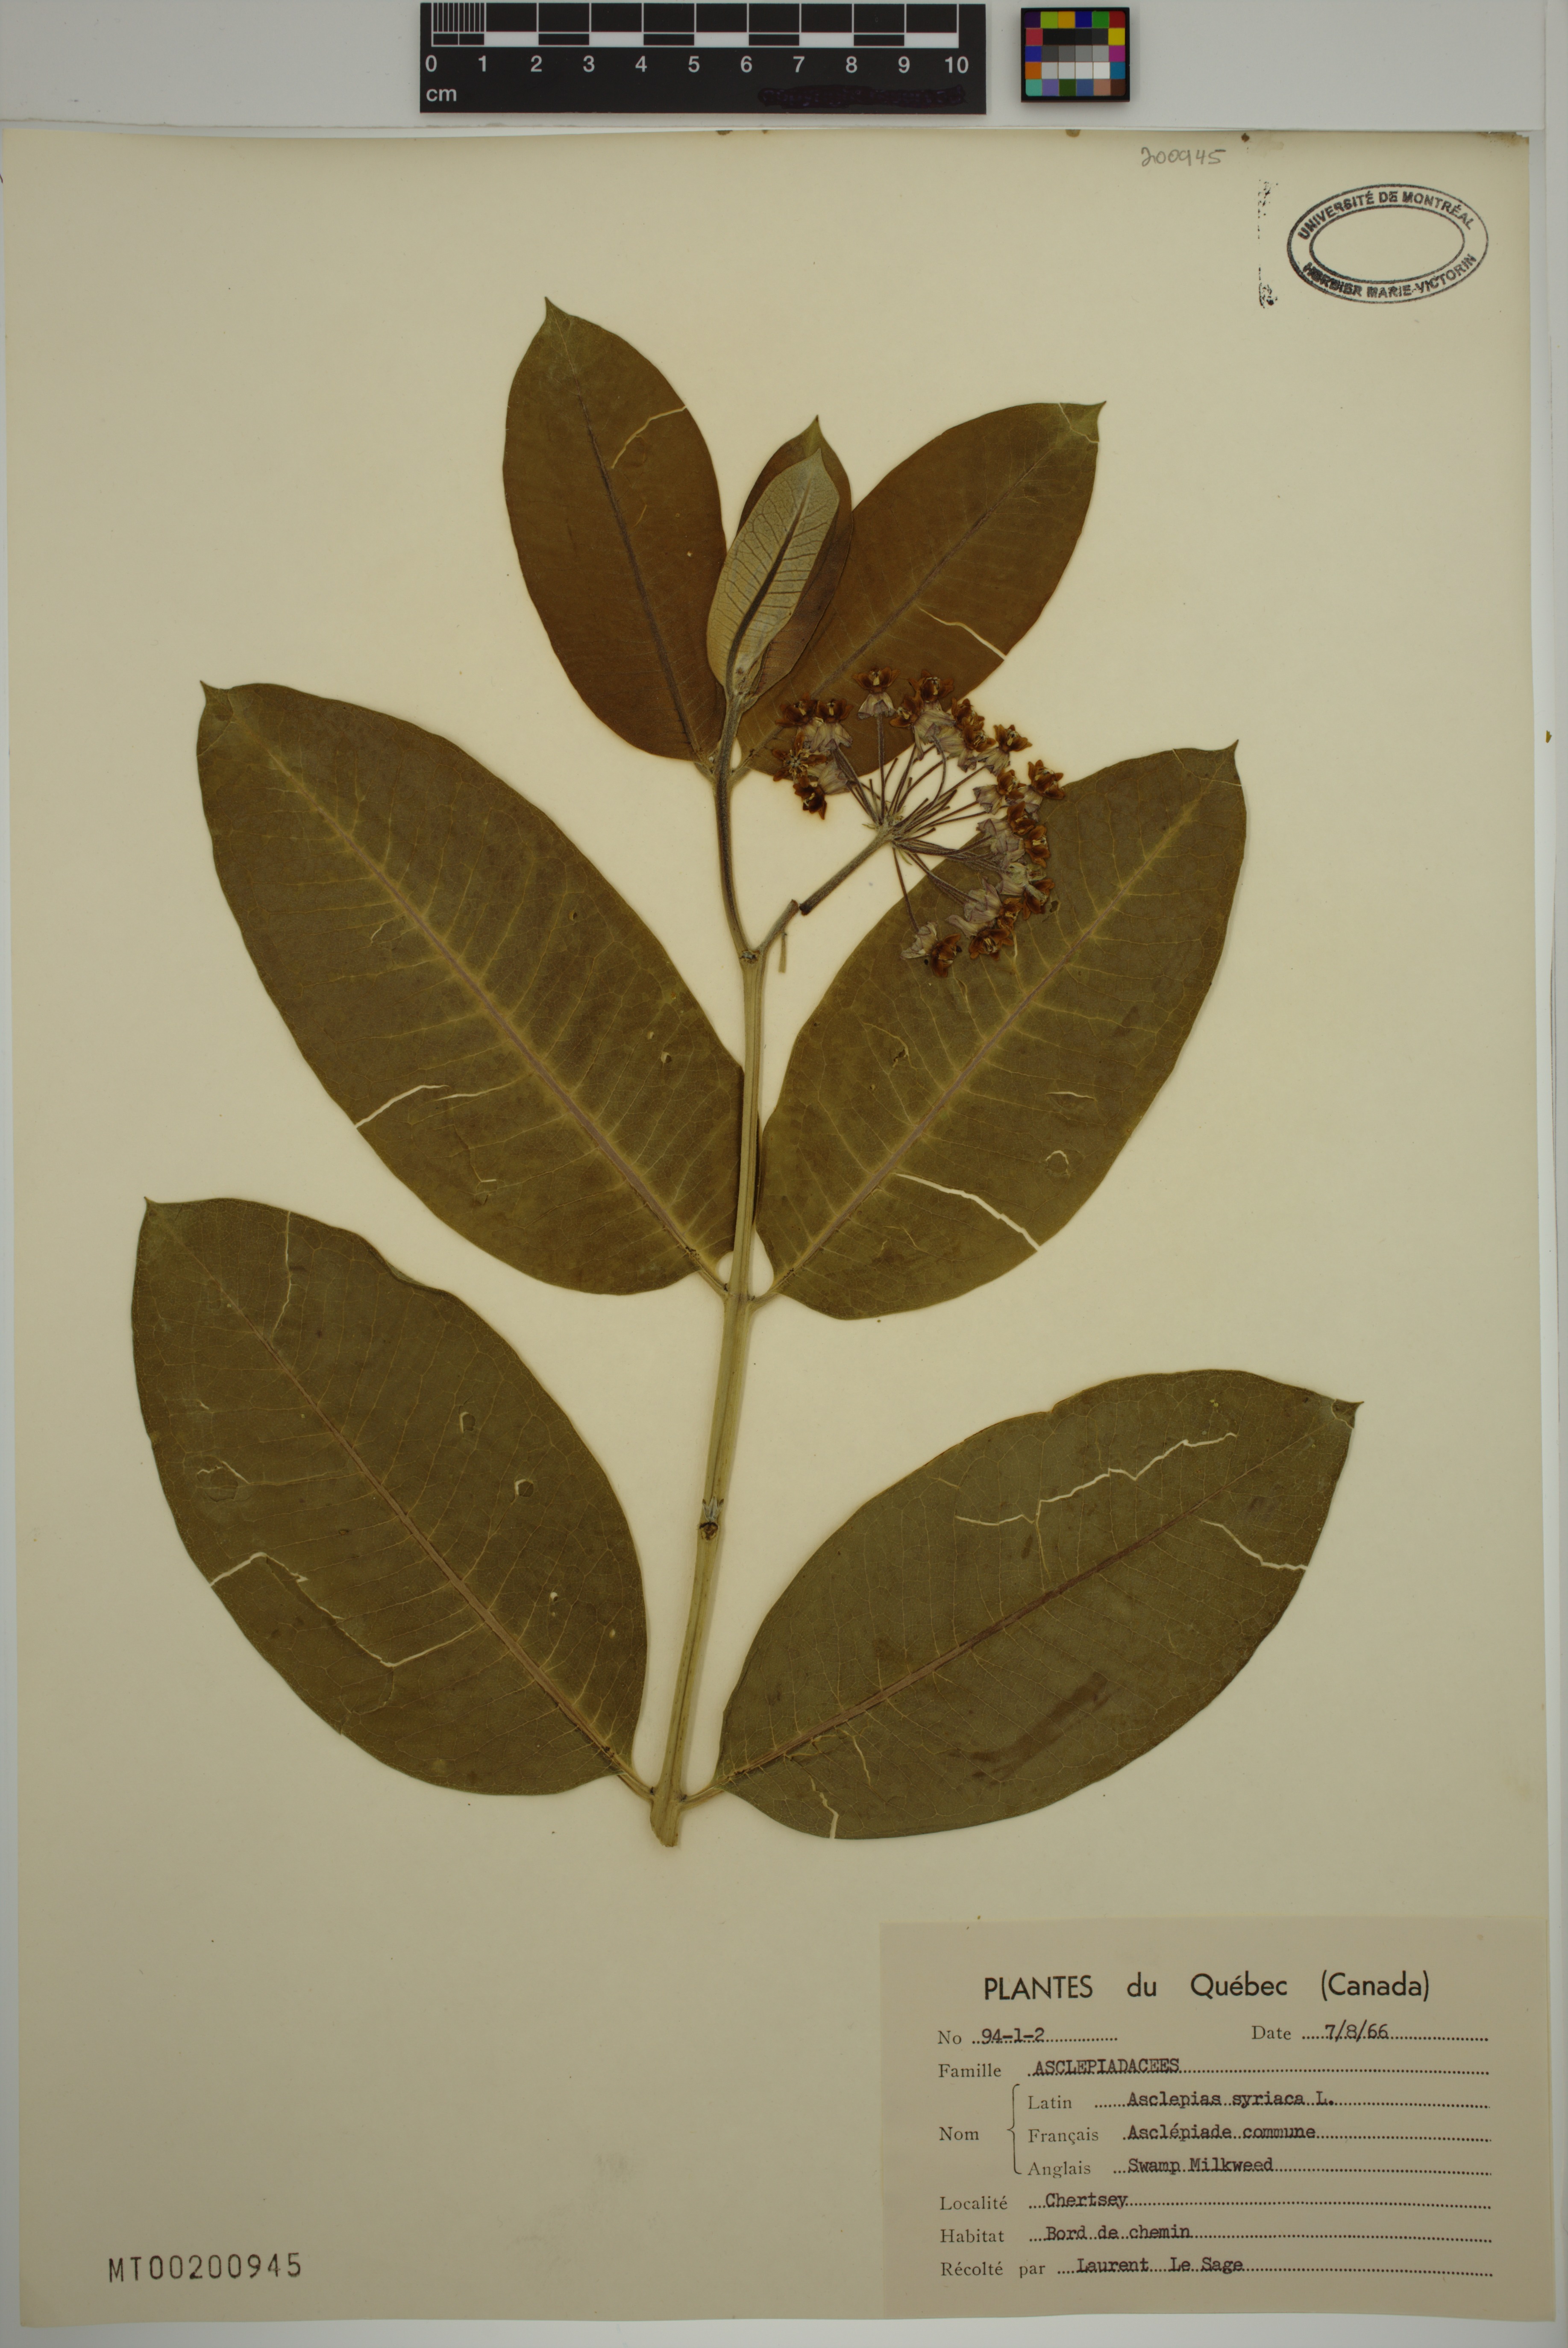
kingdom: Plantae
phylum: Tracheophyta
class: Magnoliopsida
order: Gentianales
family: Apocynaceae
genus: Asclepias
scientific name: Asclepias syriaca
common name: Common milkweed
